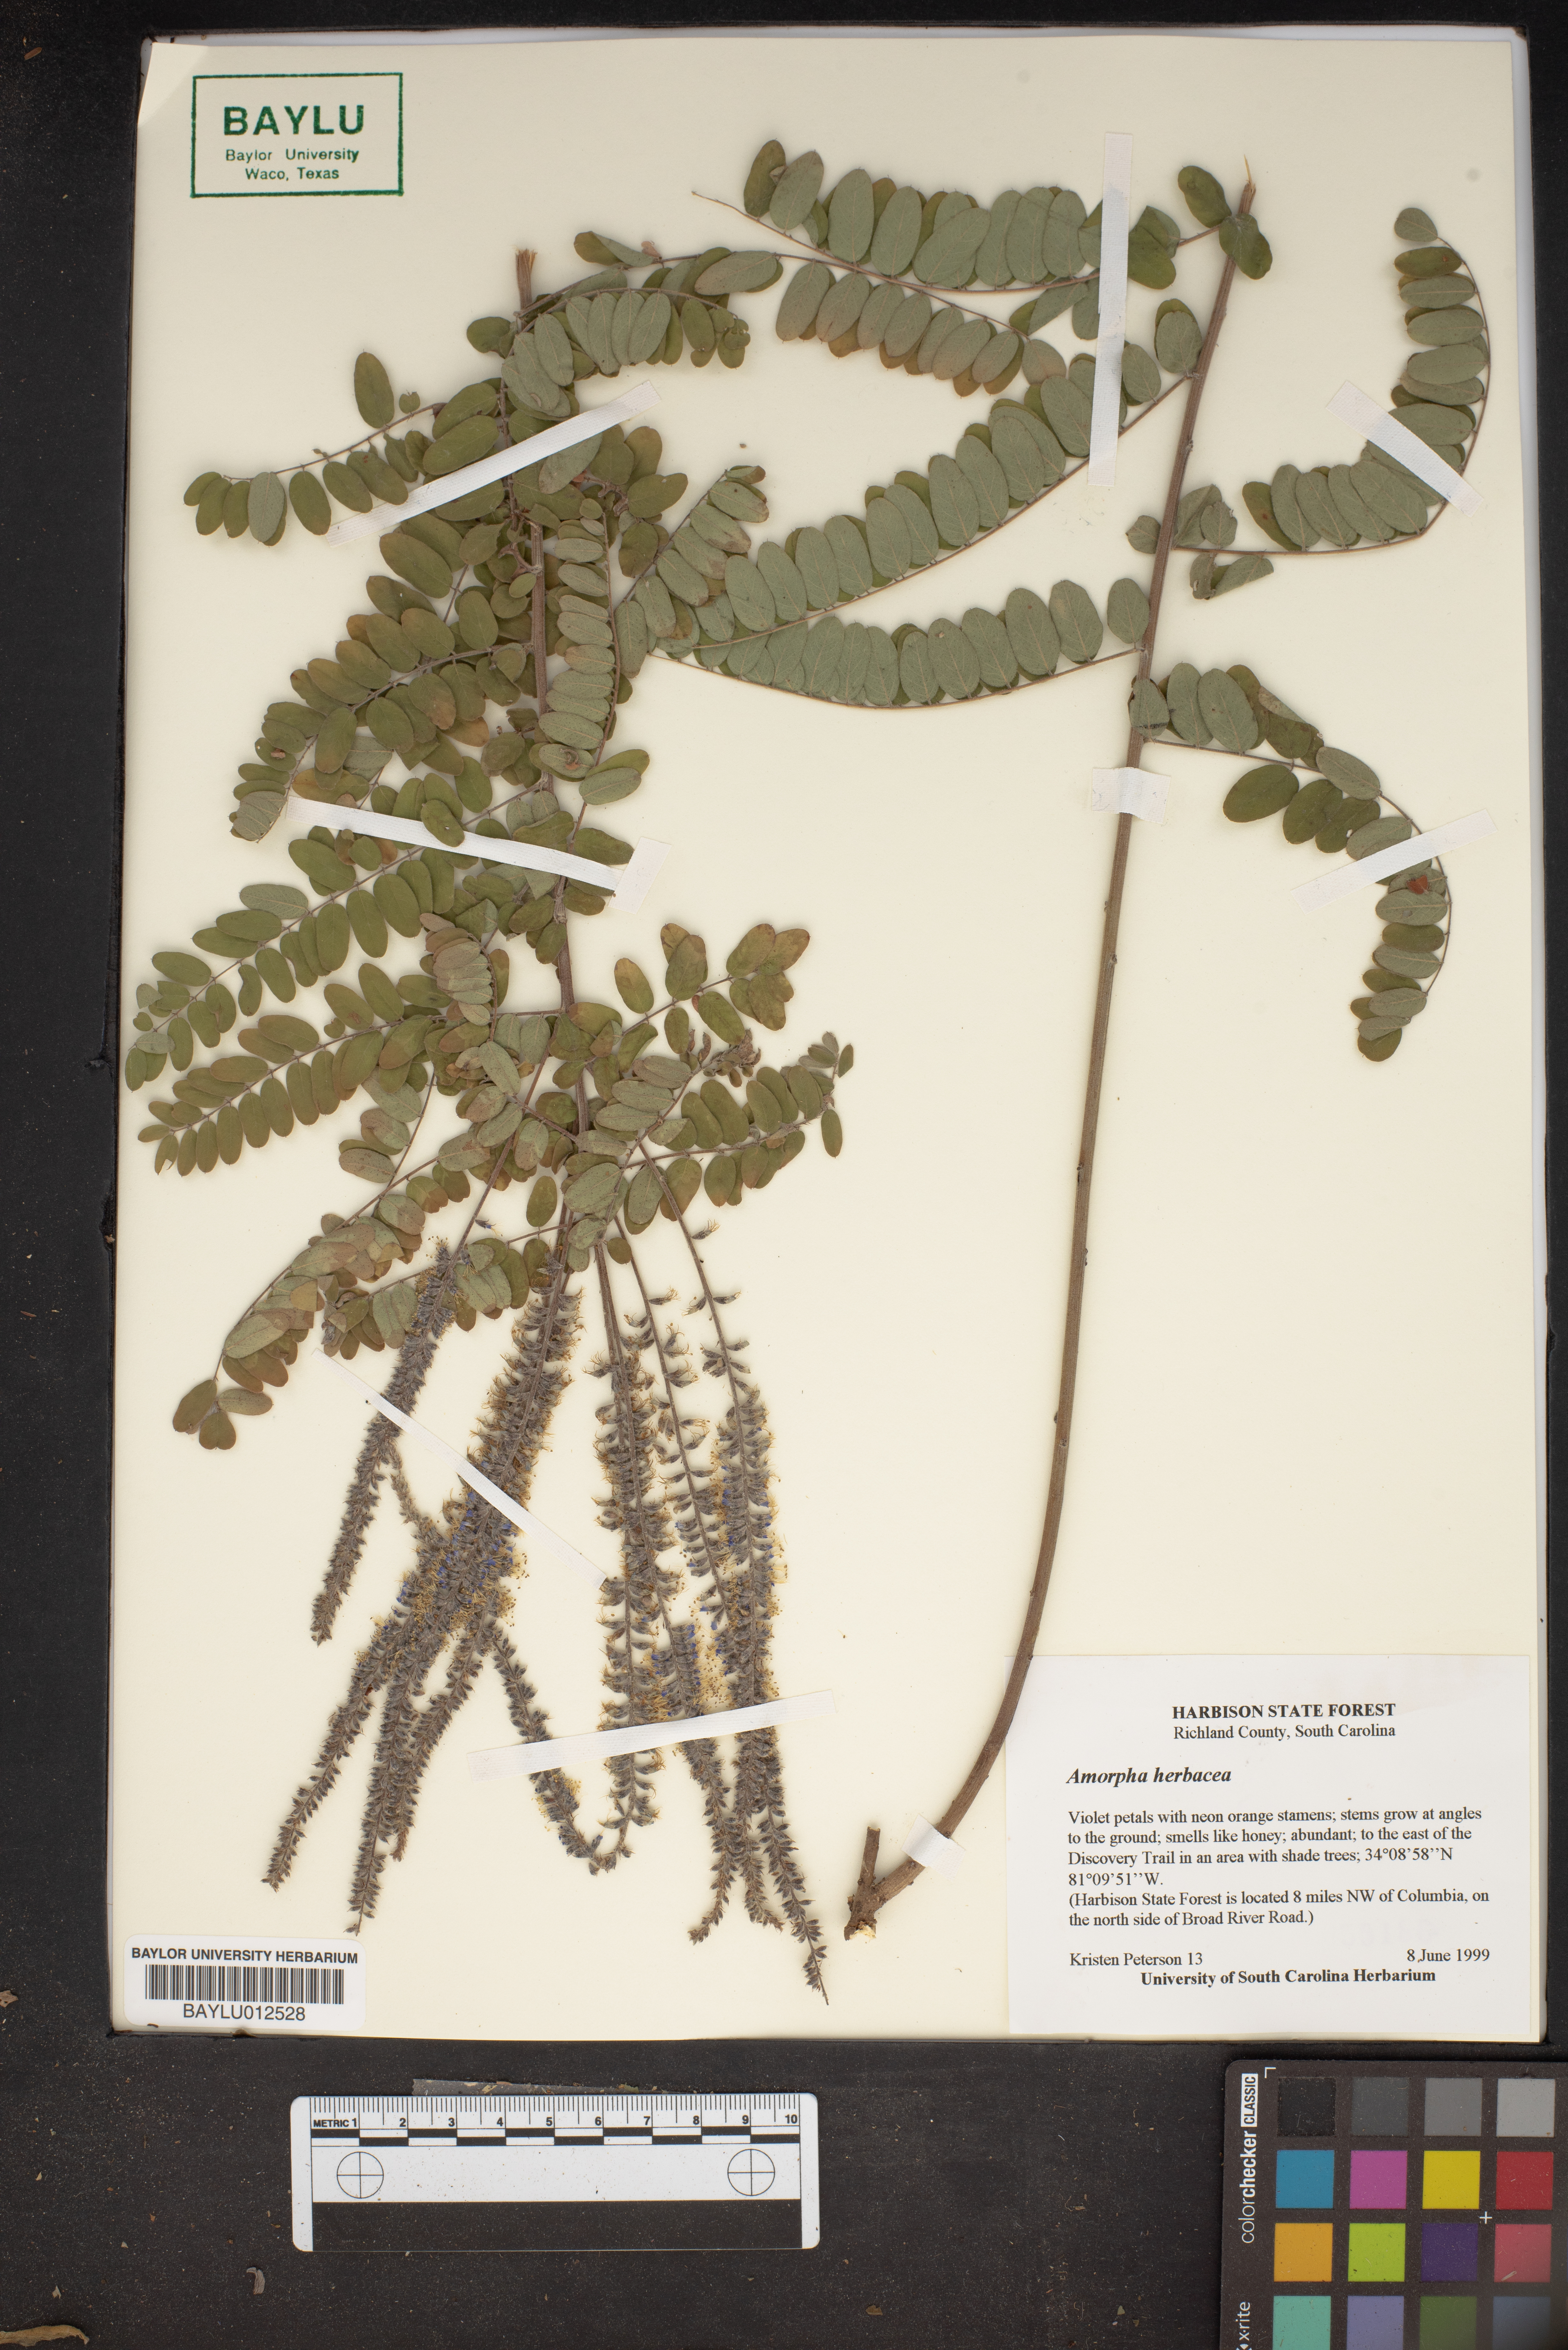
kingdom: Plantae
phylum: Tracheophyta
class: Magnoliopsida
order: Fabales
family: Fabaceae
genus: Amorpha
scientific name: Amorpha herbacea
